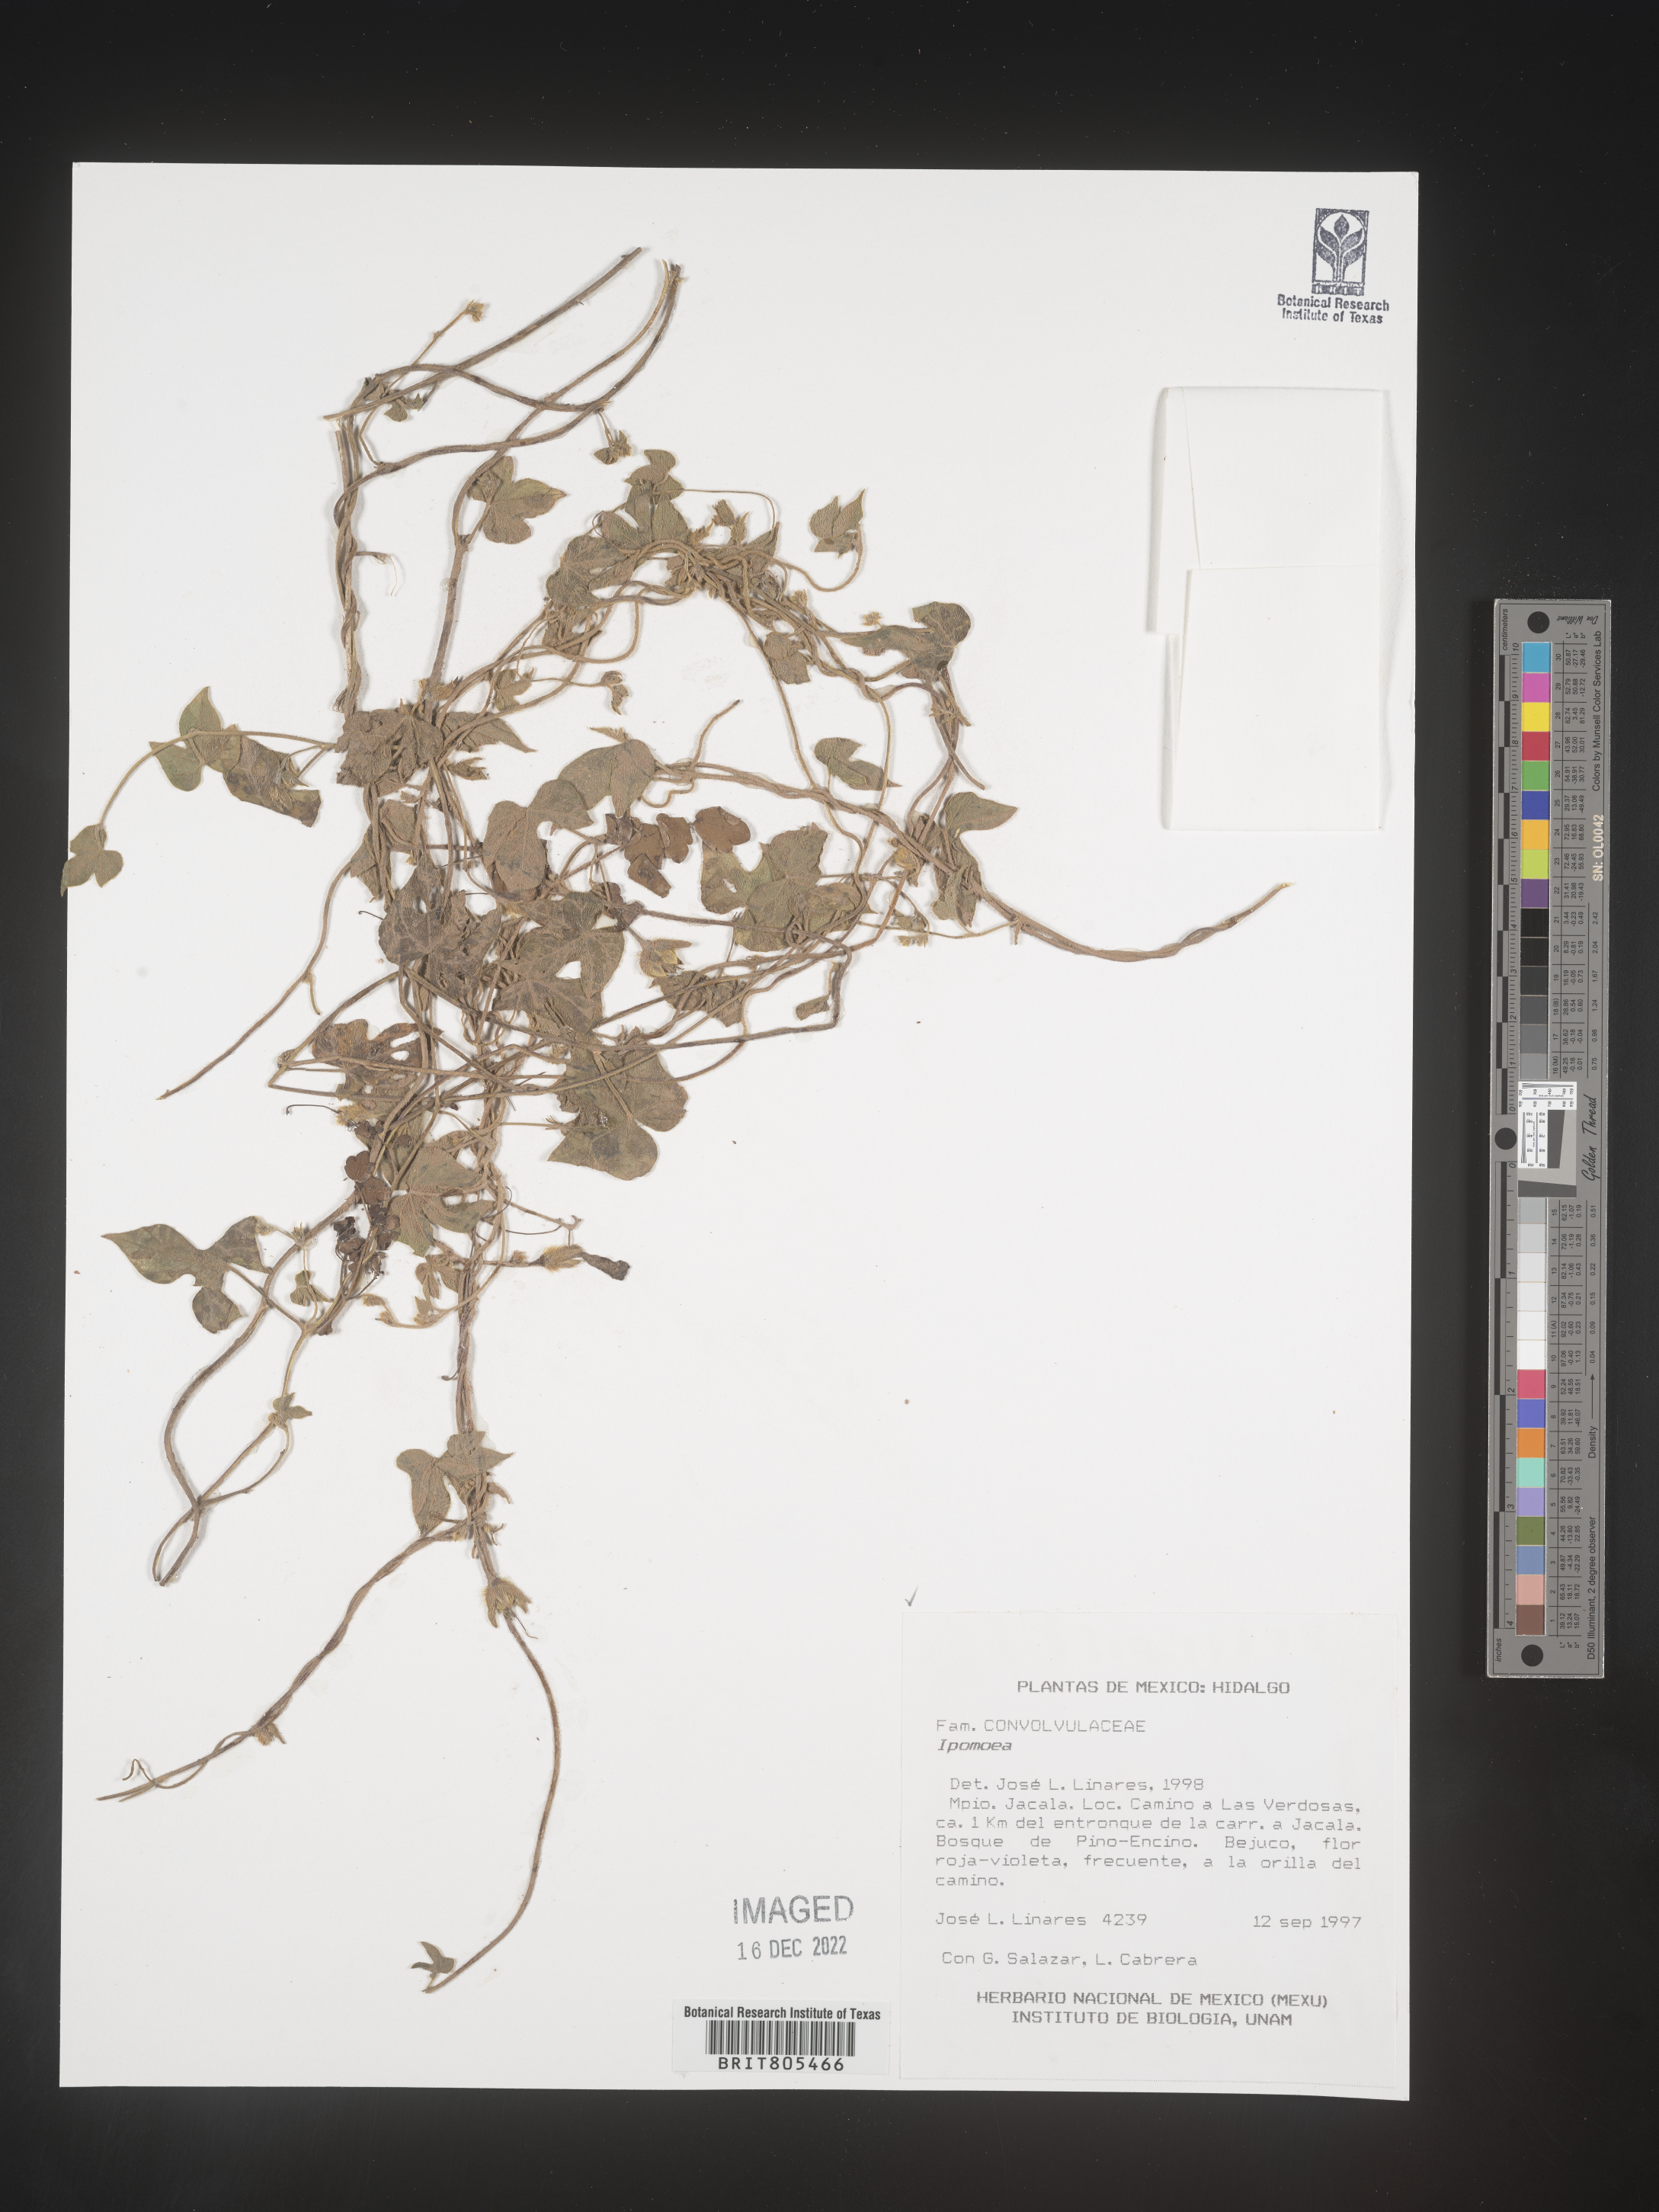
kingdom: Plantae
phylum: Tracheophyta
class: Magnoliopsida
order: Solanales
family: Convolvulaceae
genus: Ipomoea
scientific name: Ipomoea
